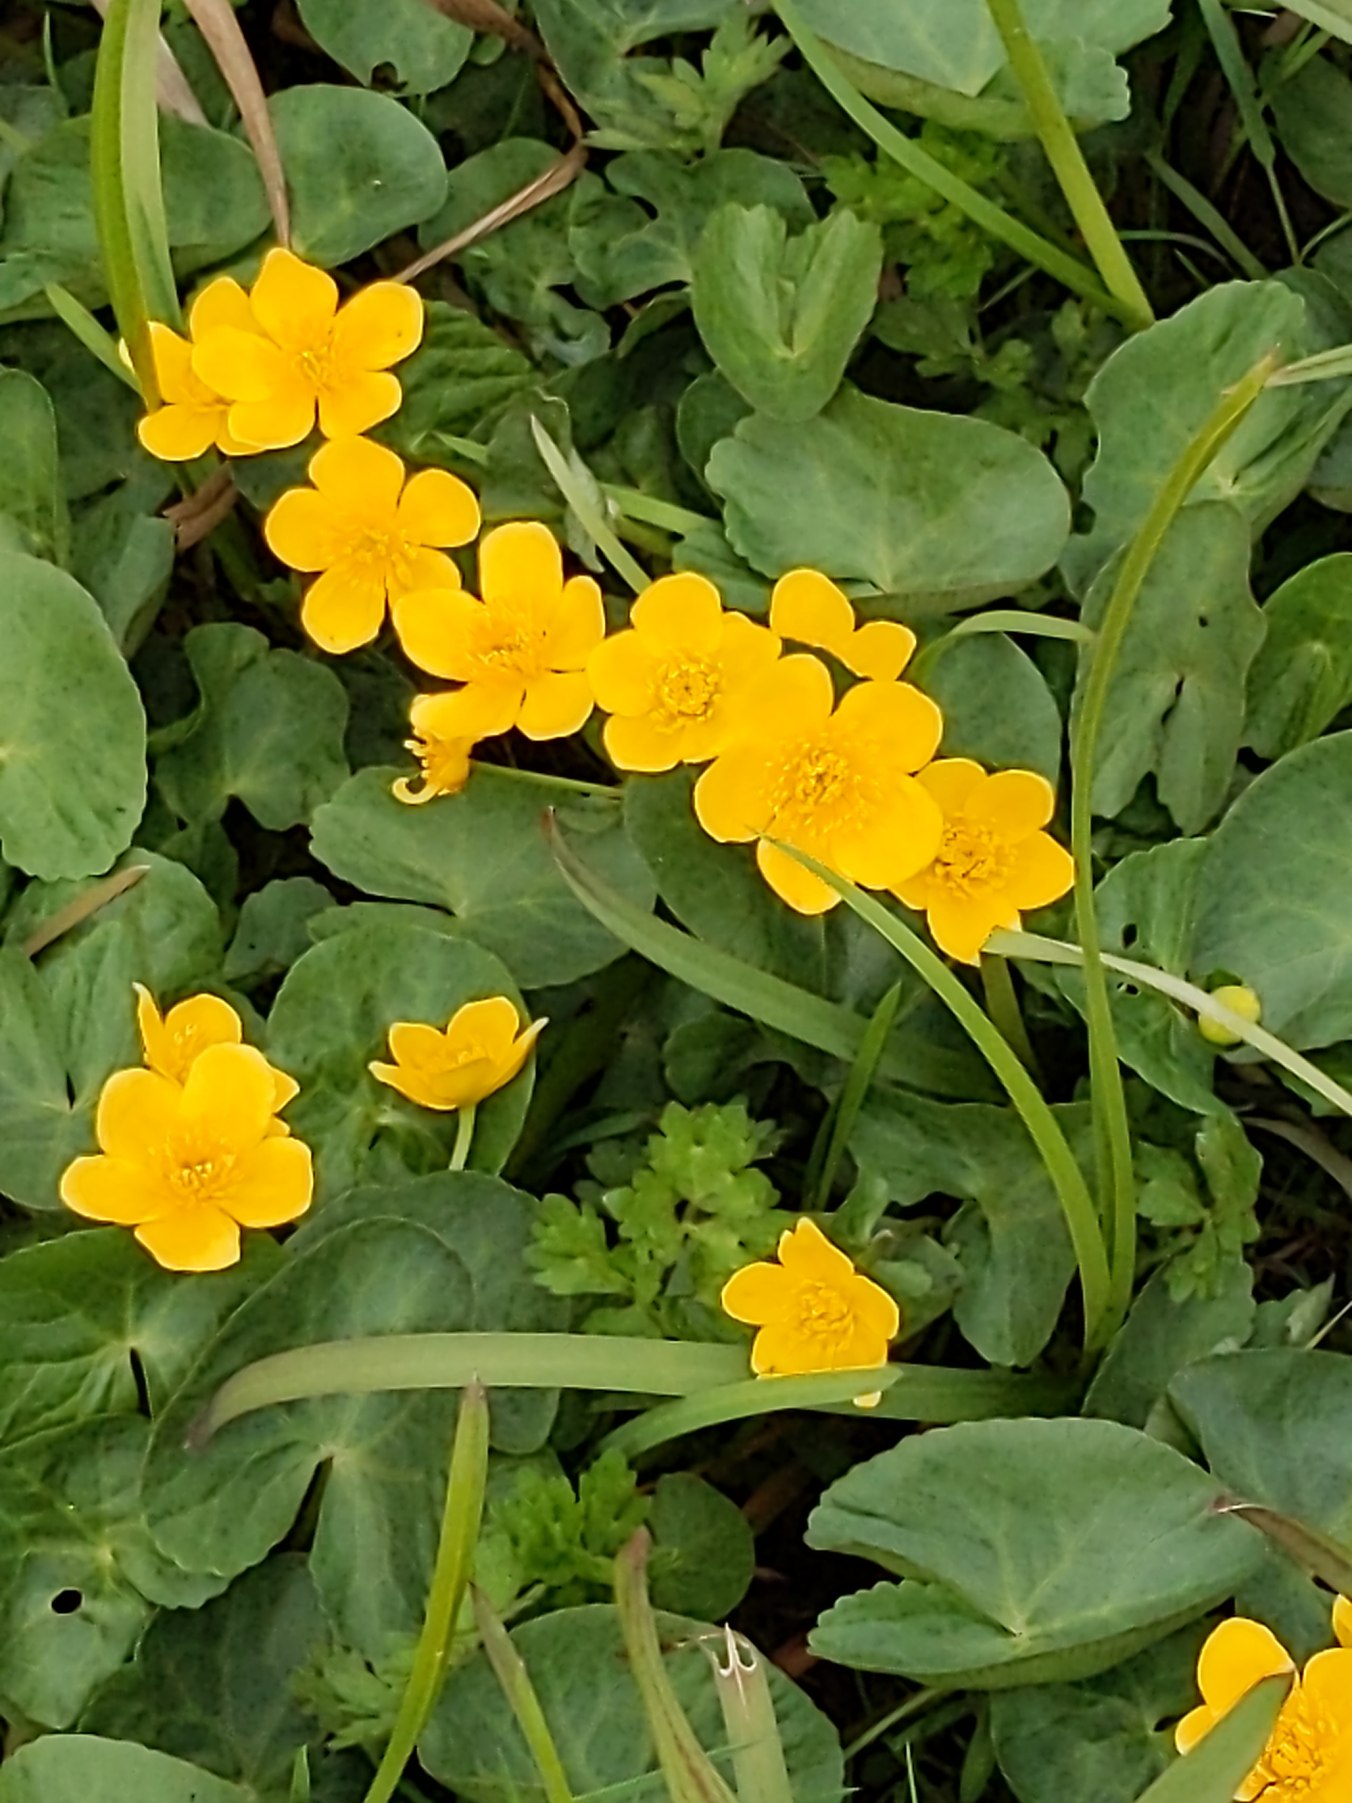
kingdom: Plantae
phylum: Tracheophyta
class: Magnoliopsida
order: Ranunculales
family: Ranunculaceae
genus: Caltha
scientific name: Caltha palustris
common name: Eng-kabbeleje
